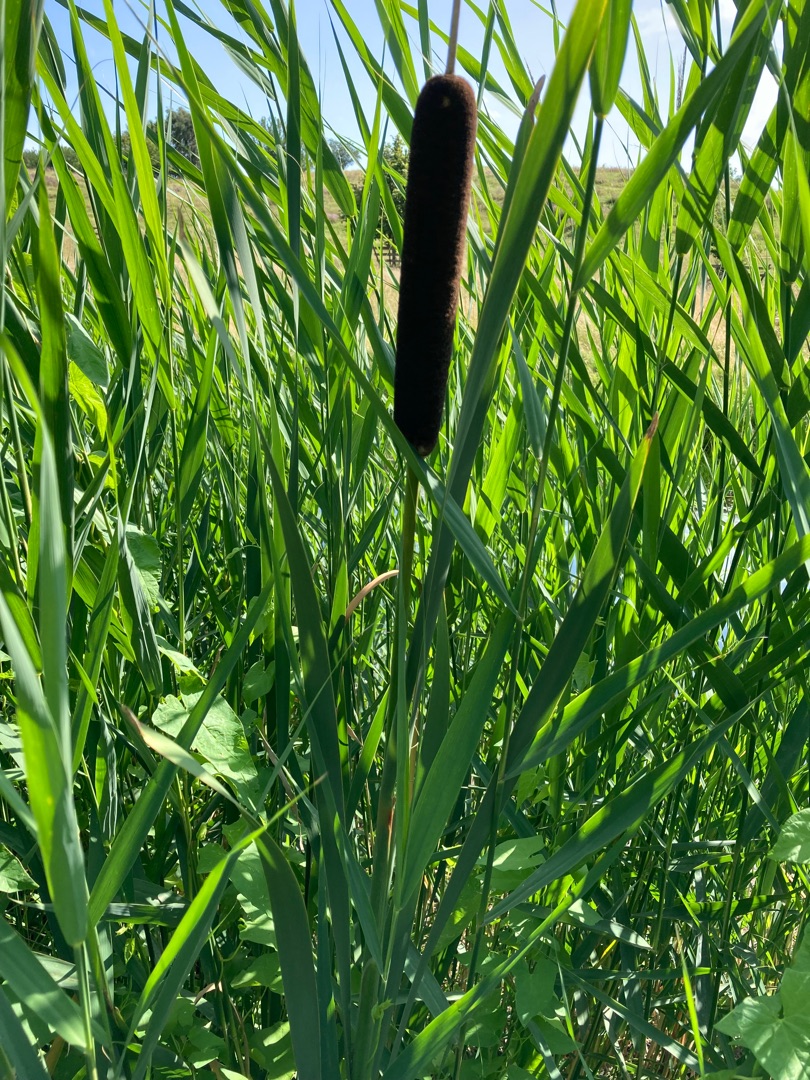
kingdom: Plantae
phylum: Tracheophyta
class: Liliopsida
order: Poales
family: Typhaceae
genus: Typha
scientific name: Typha latifolia
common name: Bredbladet dunhammer
